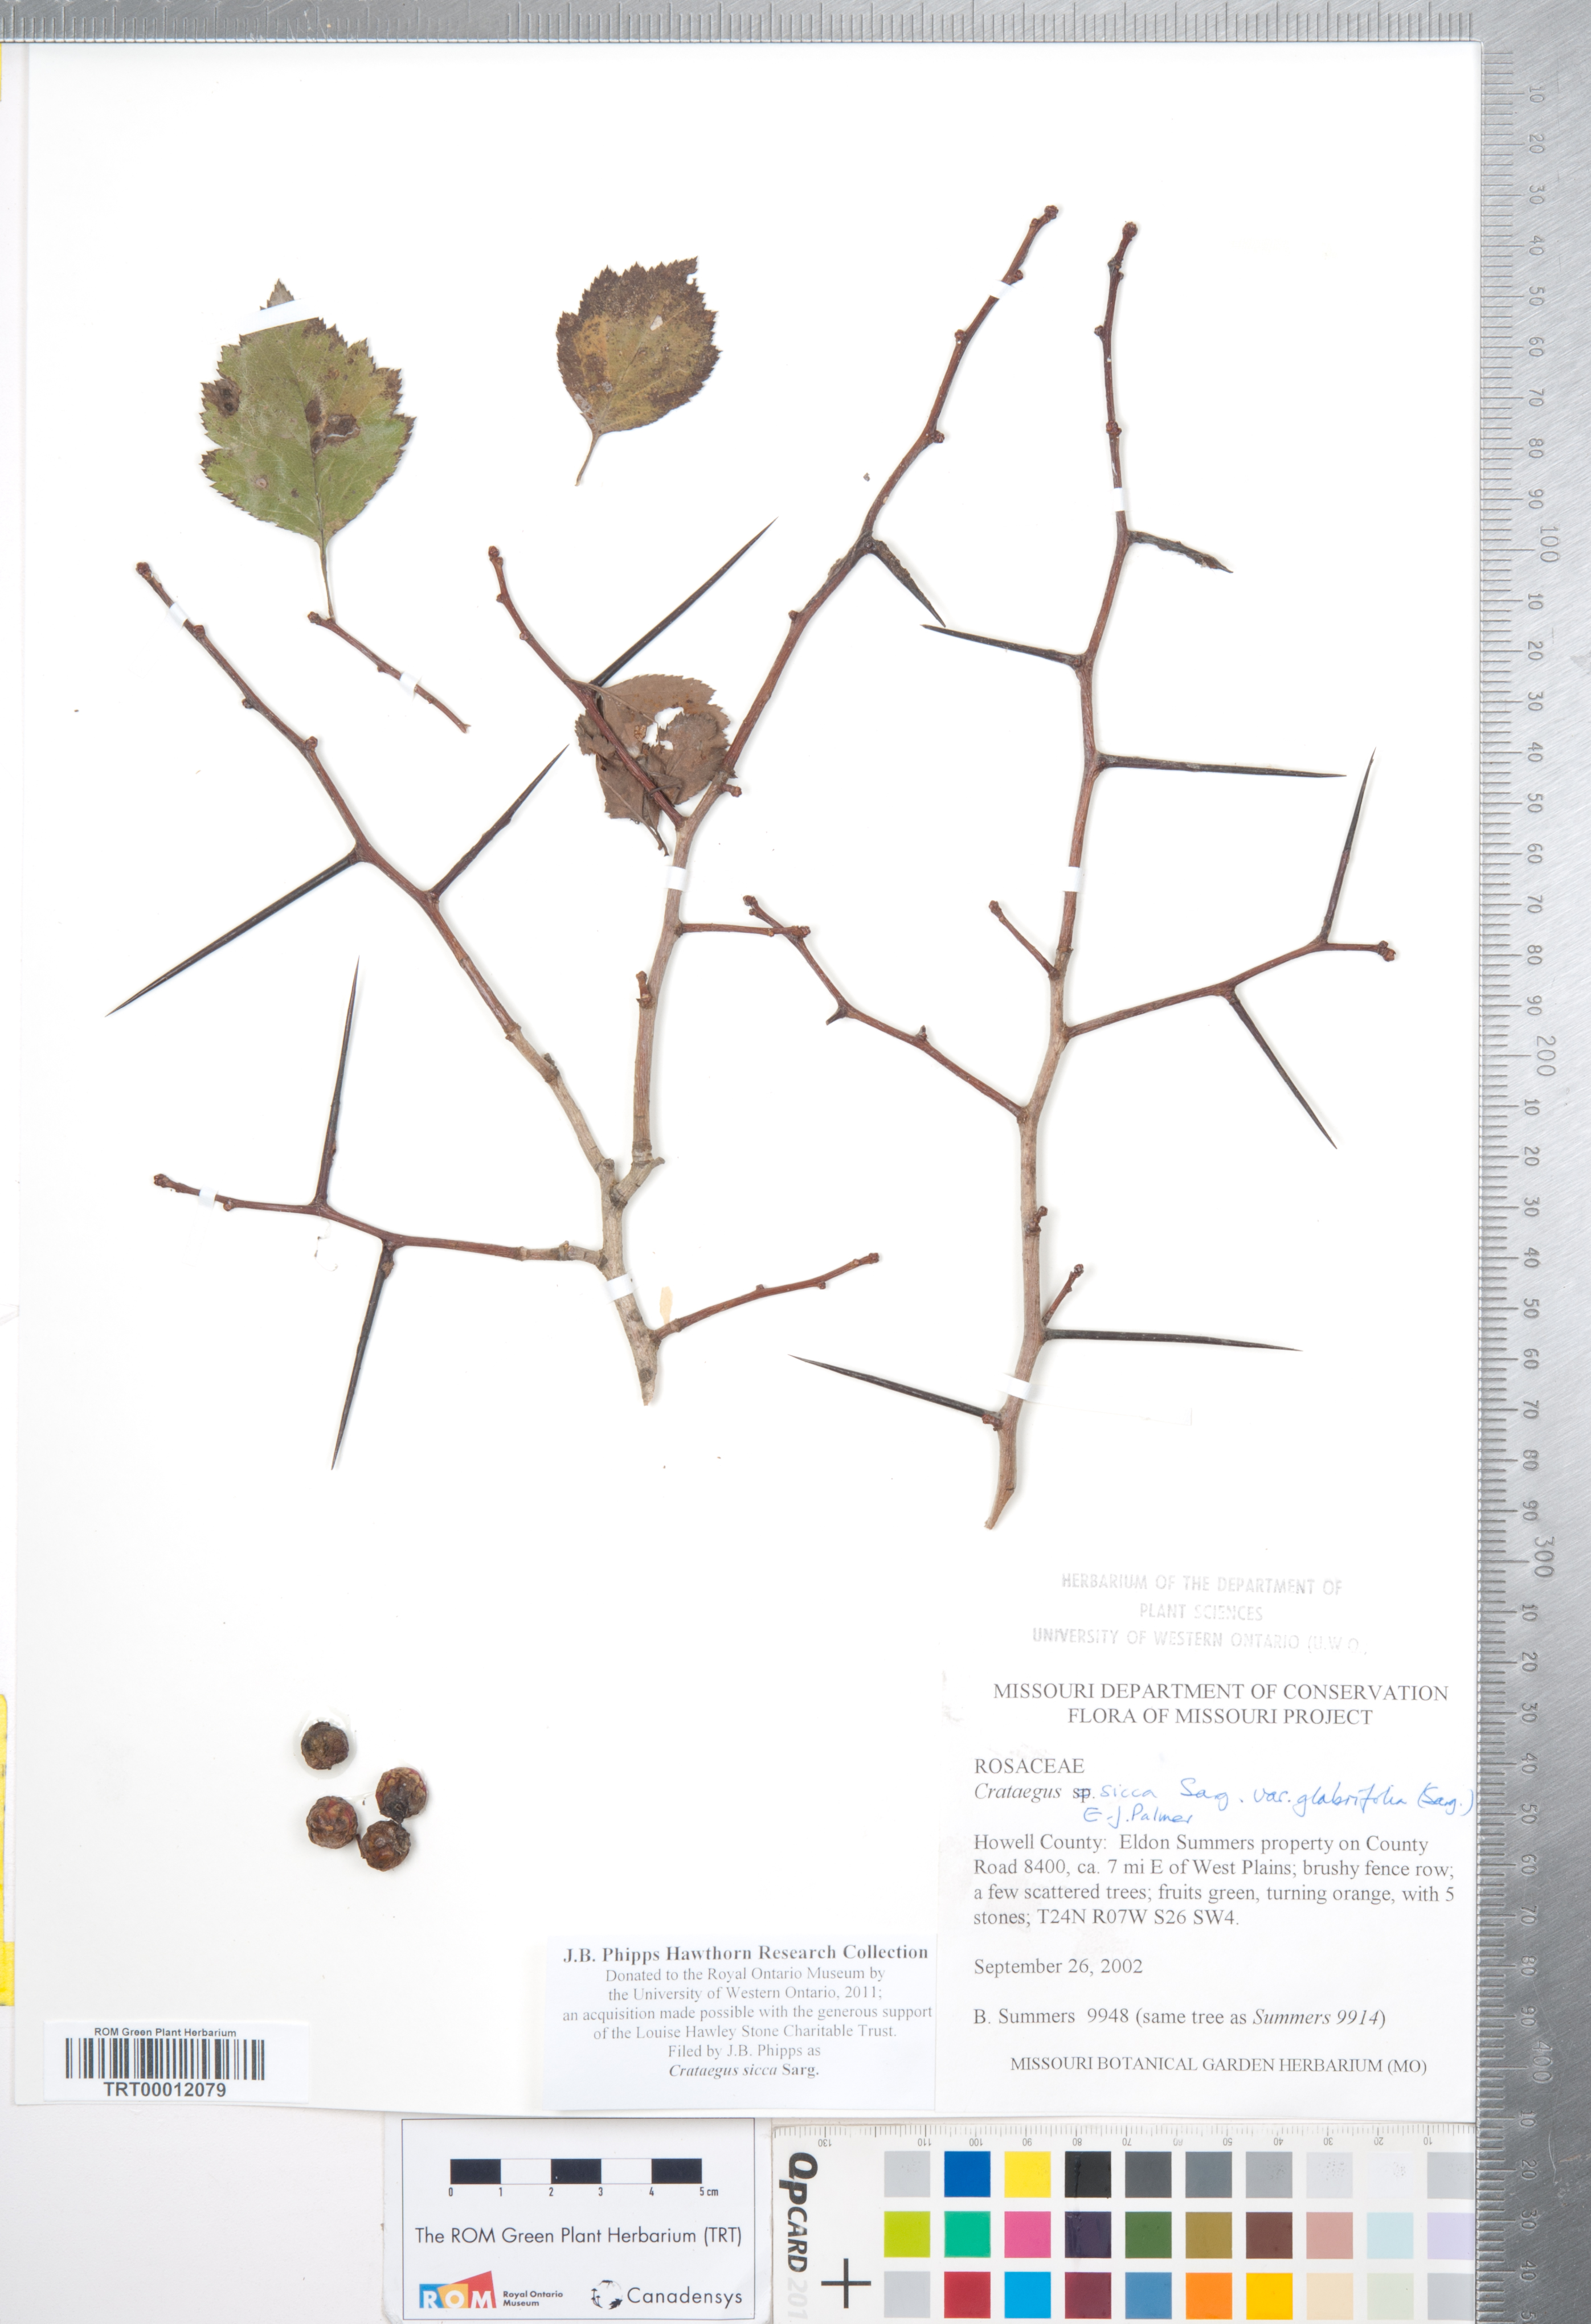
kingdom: Plantae
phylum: Tracheophyta
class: Magnoliopsida
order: Rosales
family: Rosaceae
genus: Crataegus
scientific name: Crataegus chrysocarpa
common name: Fire-berry hawthorn
